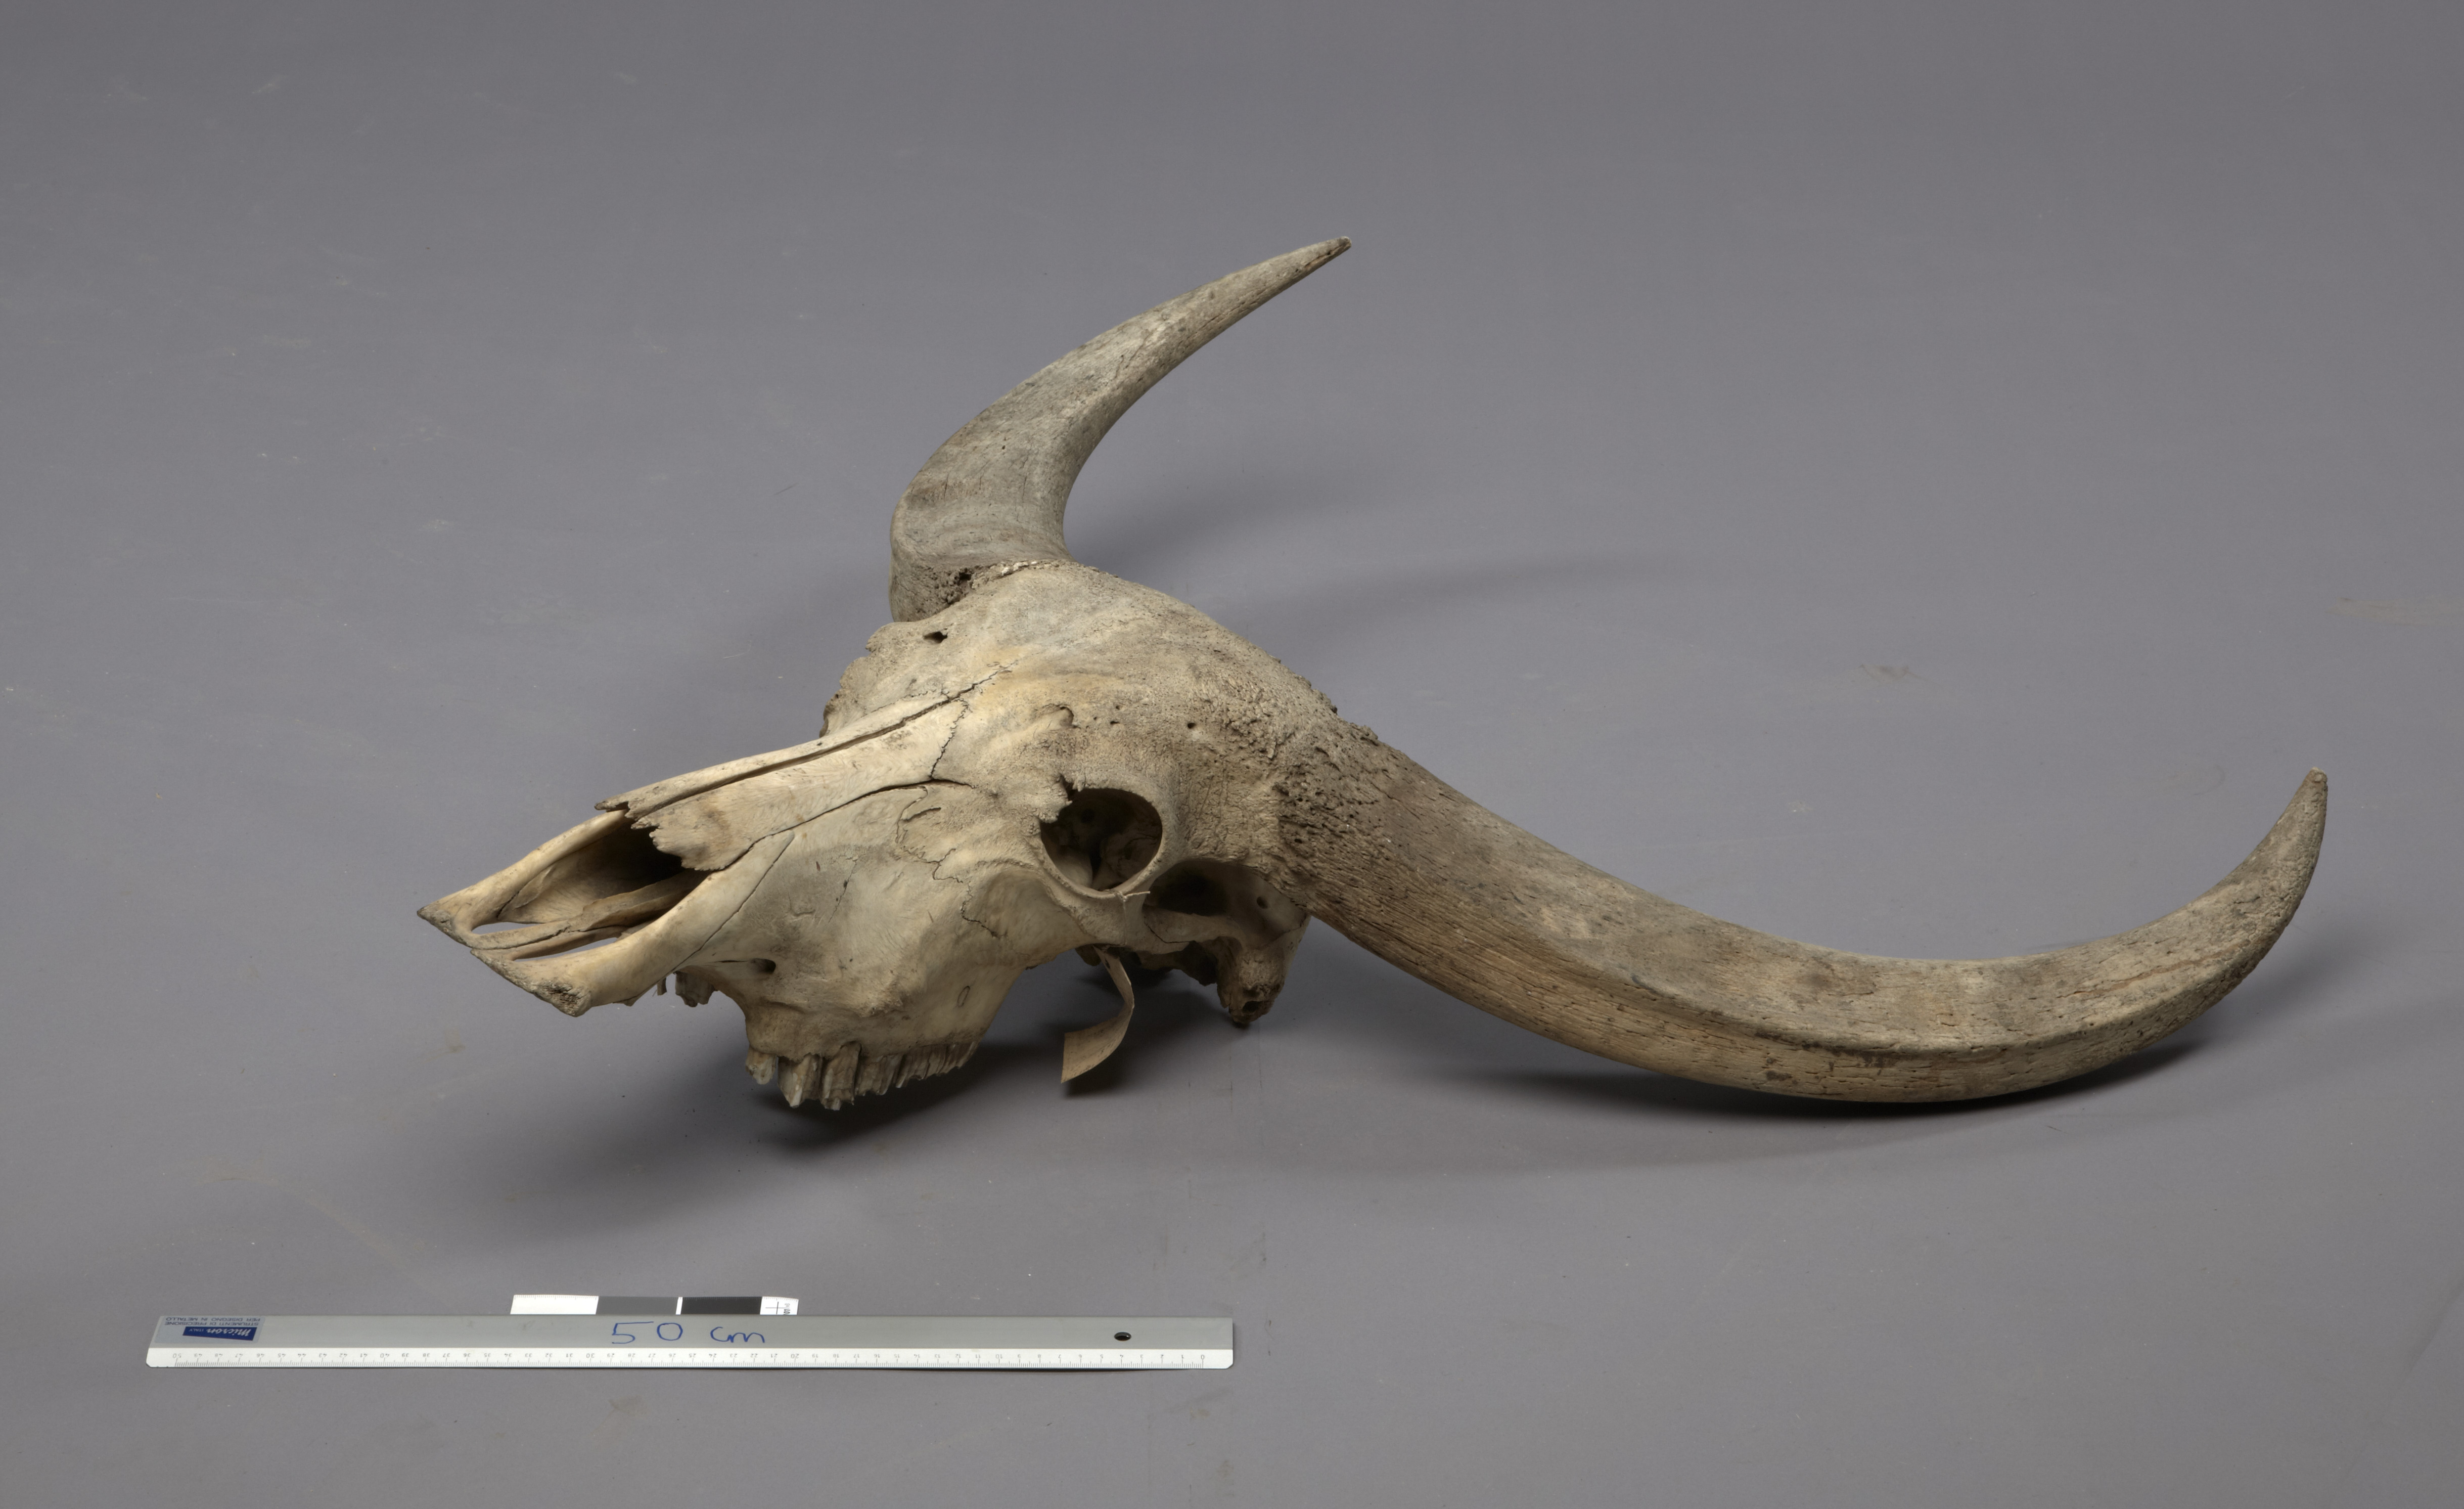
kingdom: Animalia
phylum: Chordata
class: Mammalia
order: Artiodactyla
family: Bovidae
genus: Bubalus
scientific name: Bubalus bubalis
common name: Water buffalo
